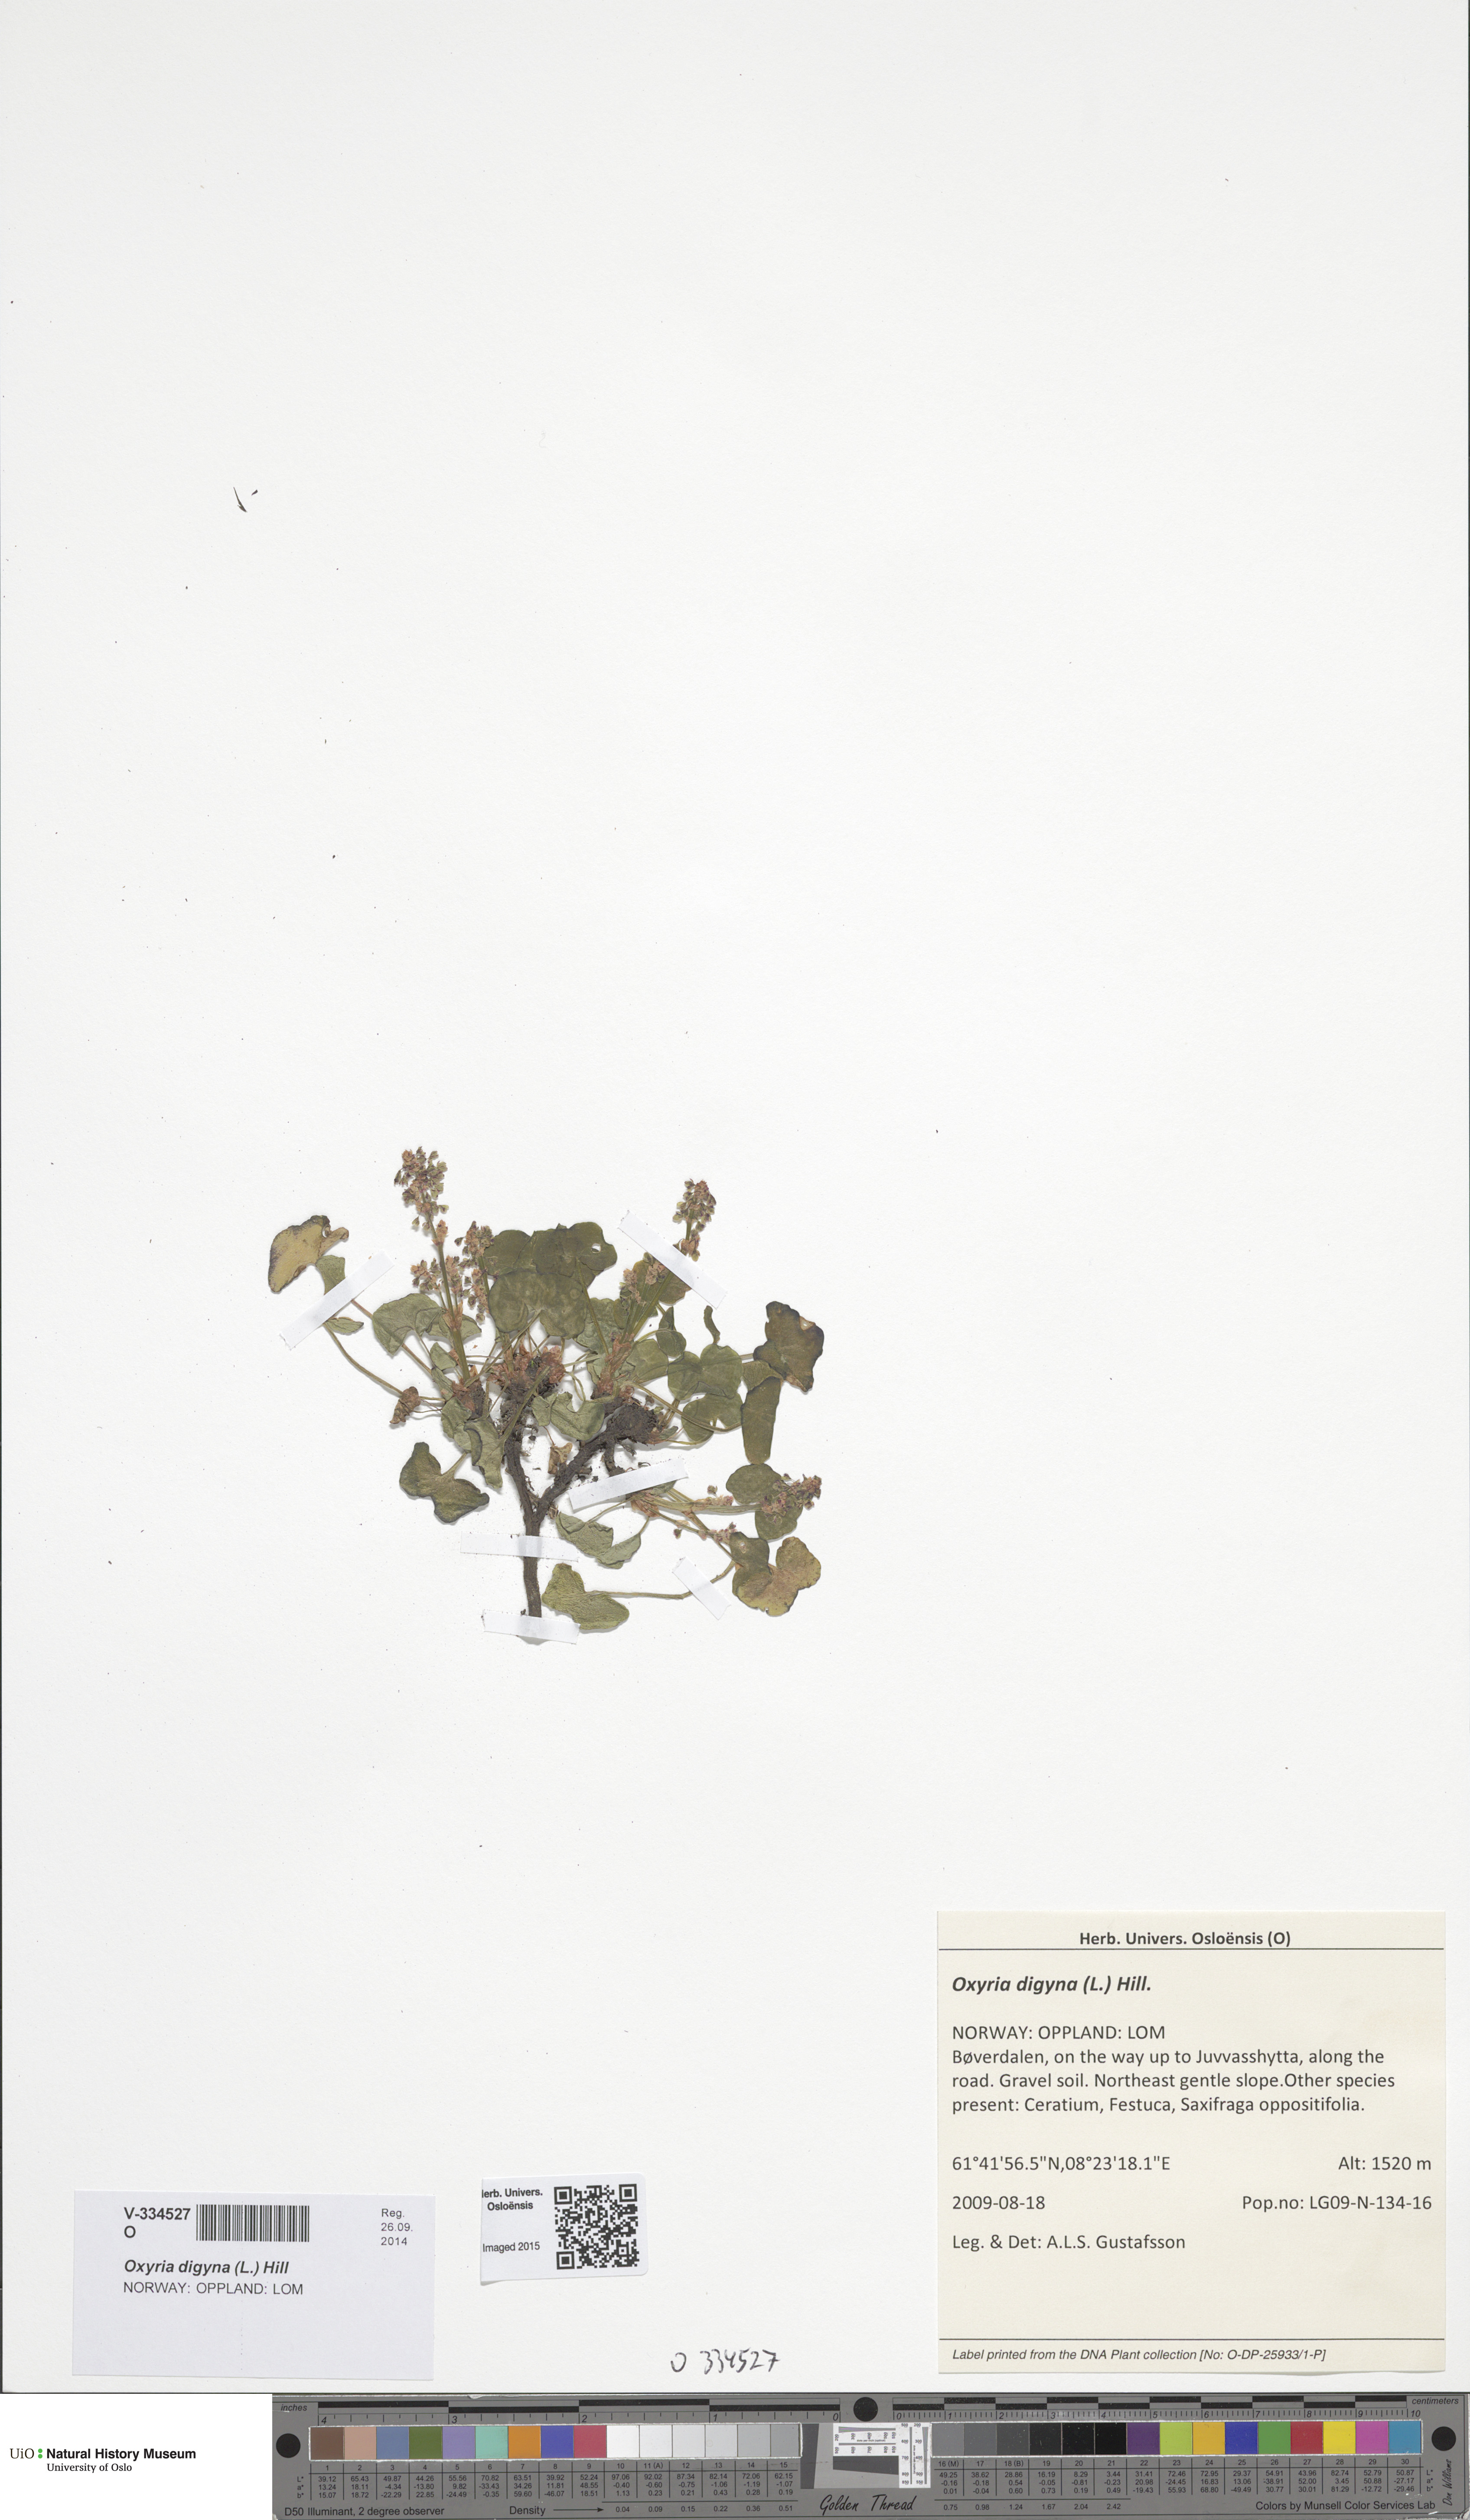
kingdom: Plantae
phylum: Tracheophyta
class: Magnoliopsida
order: Caryophyllales
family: Polygonaceae
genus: Oxyria
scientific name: Oxyria digyna
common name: Alpine mountain-sorrel
